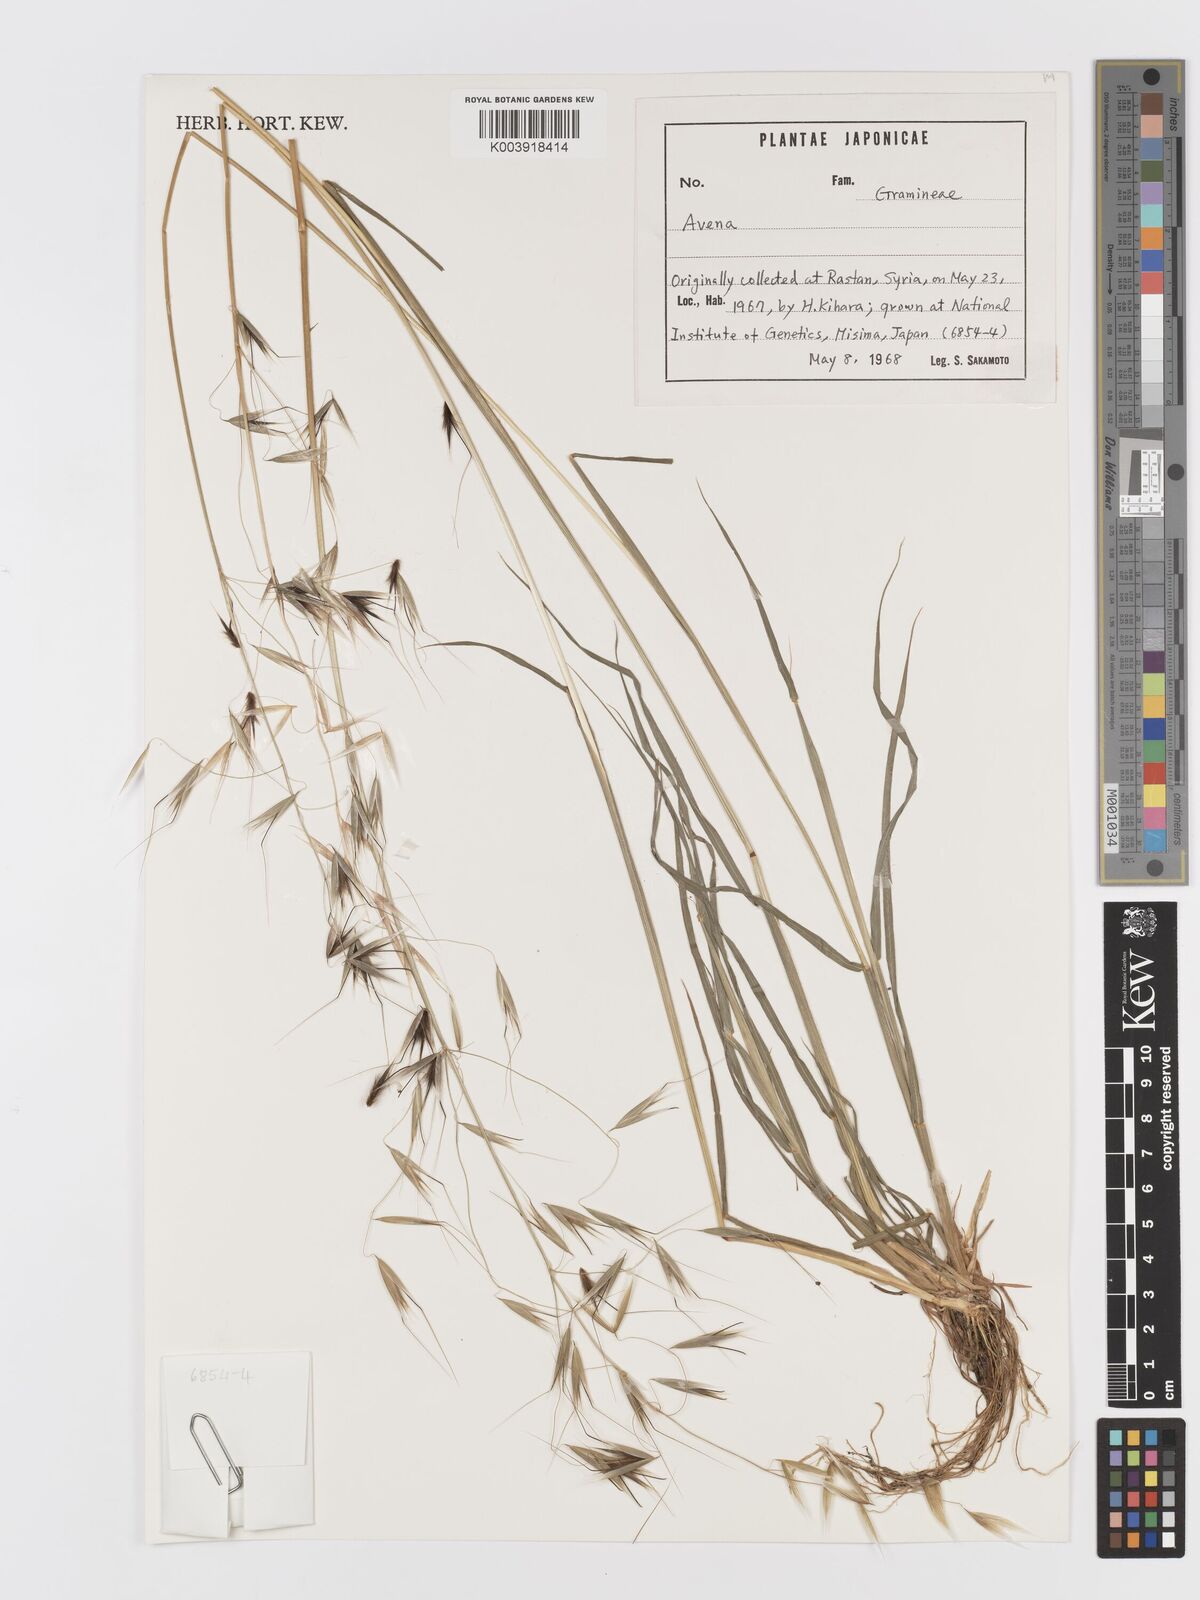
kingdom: Plantae
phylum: Tracheophyta
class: Liliopsida
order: Poales
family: Poaceae
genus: Avena
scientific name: Avena
